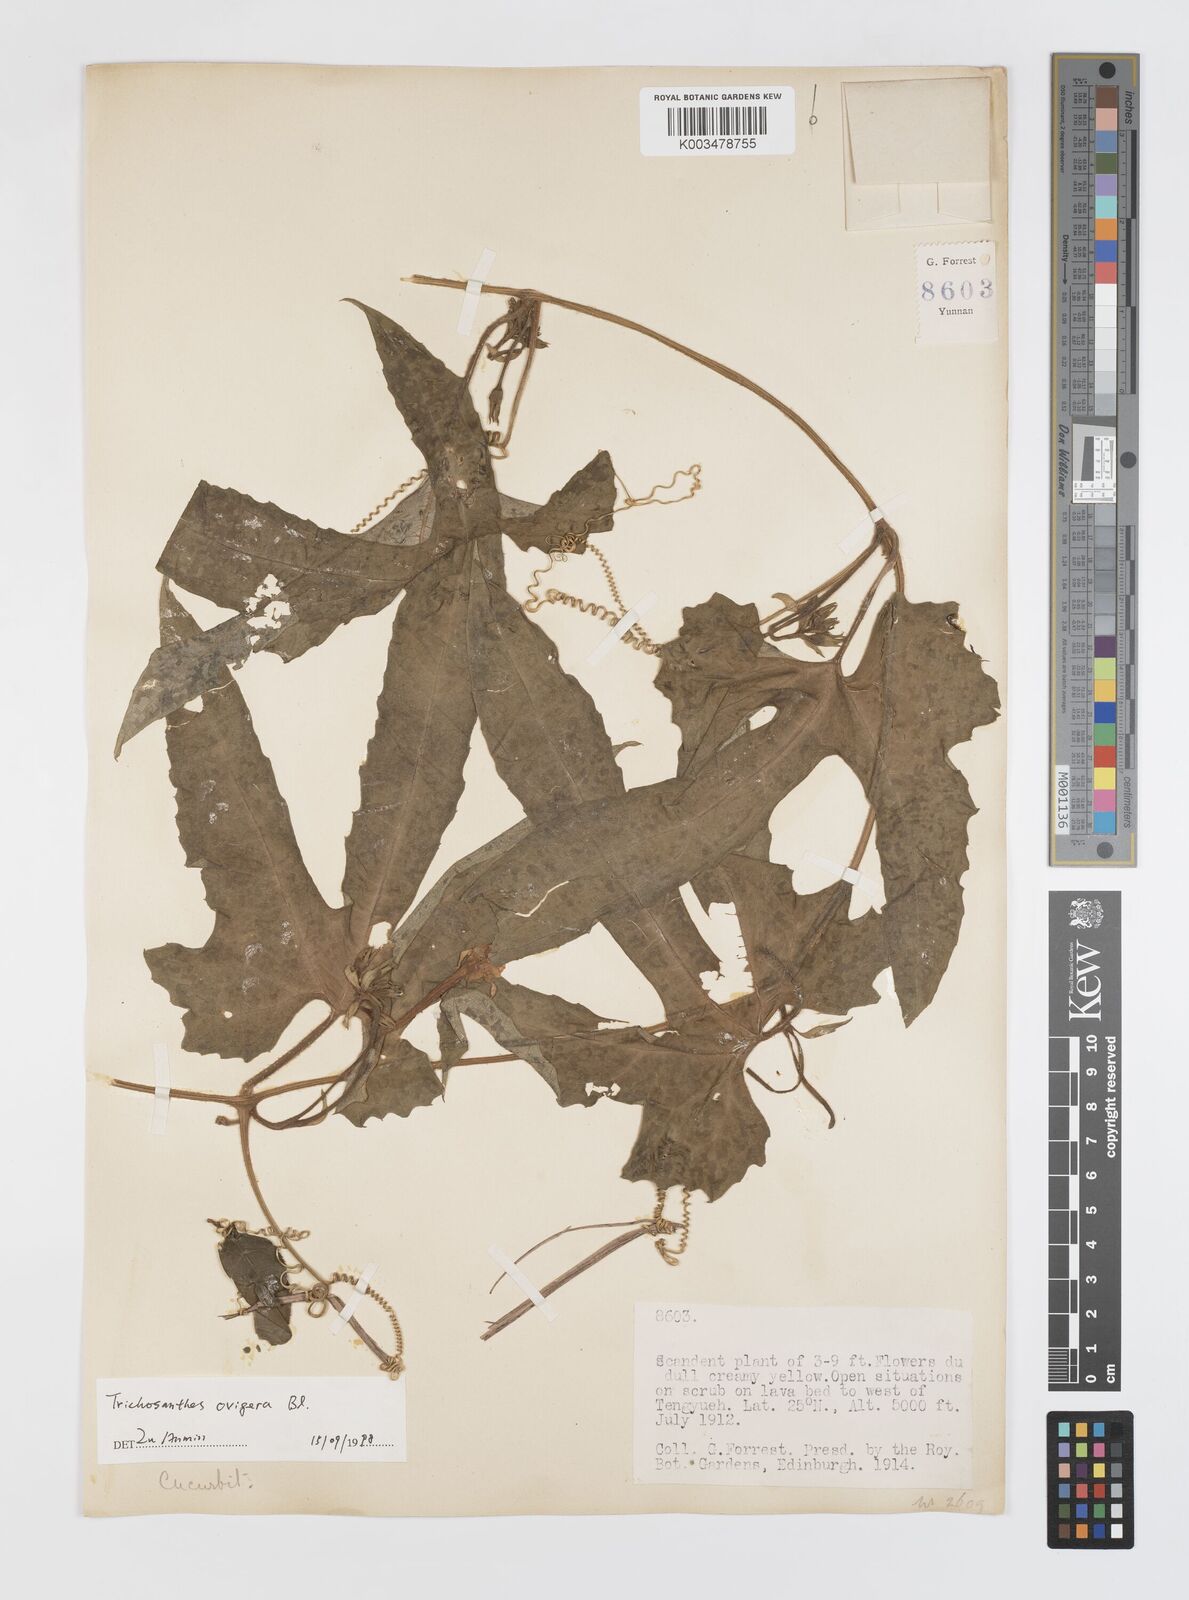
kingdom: Plantae
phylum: Tracheophyta
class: Magnoliopsida
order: Cucurbitales
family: Cucurbitaceae
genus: Trichosanthes
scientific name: Trichosanthes ovigera
